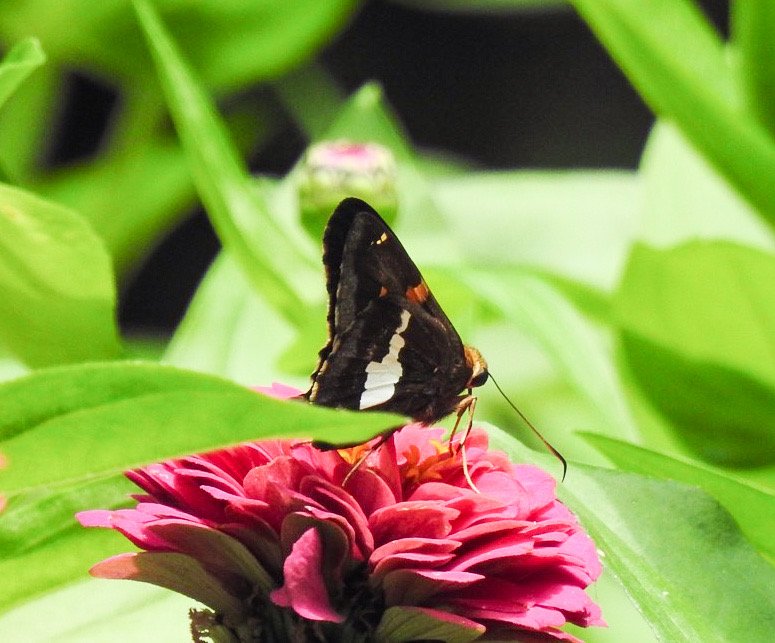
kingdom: Animalia
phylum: Arthropoda
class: Insecta
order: Lepidoptera
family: Hesperiidae
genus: Epargyreus
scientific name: Epargyreus clarus
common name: Silver-spotted Skipper
